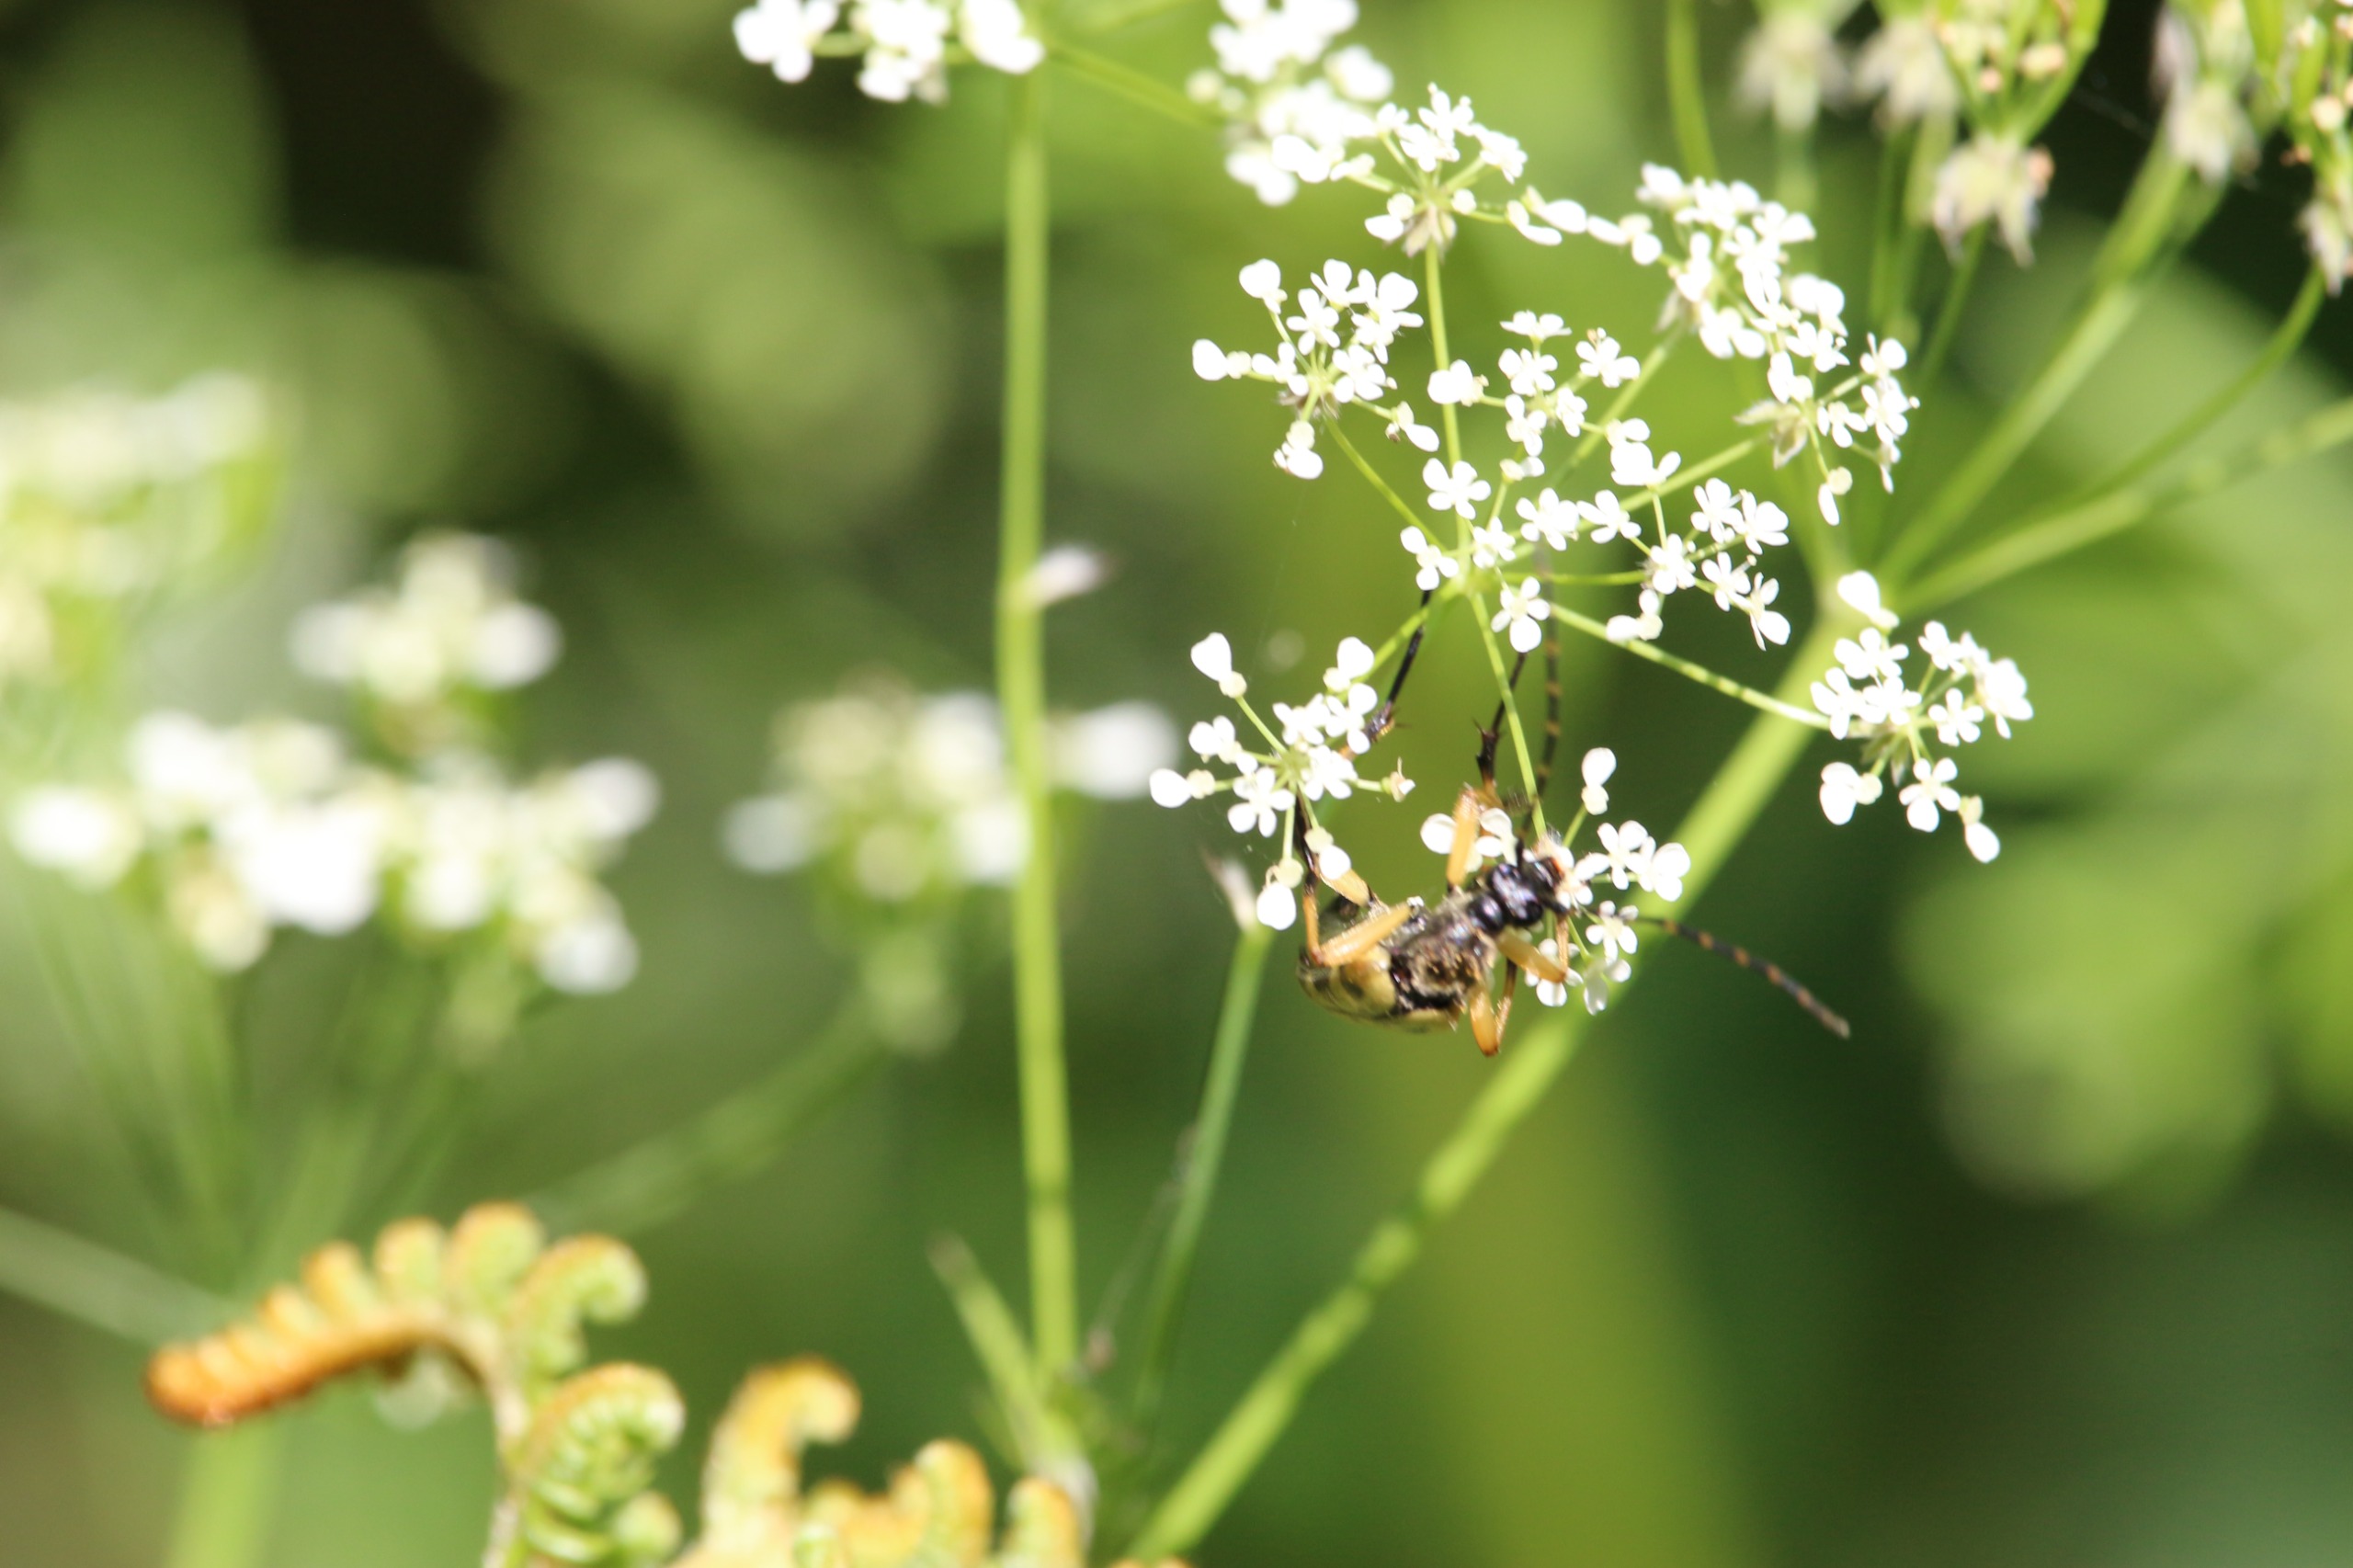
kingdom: Animalia
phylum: Arthropoda
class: Insecta
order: Coleoptera
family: Cerambycidae
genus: Rutpela
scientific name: Rutpela maculata
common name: Sydlig blomsterbuk
